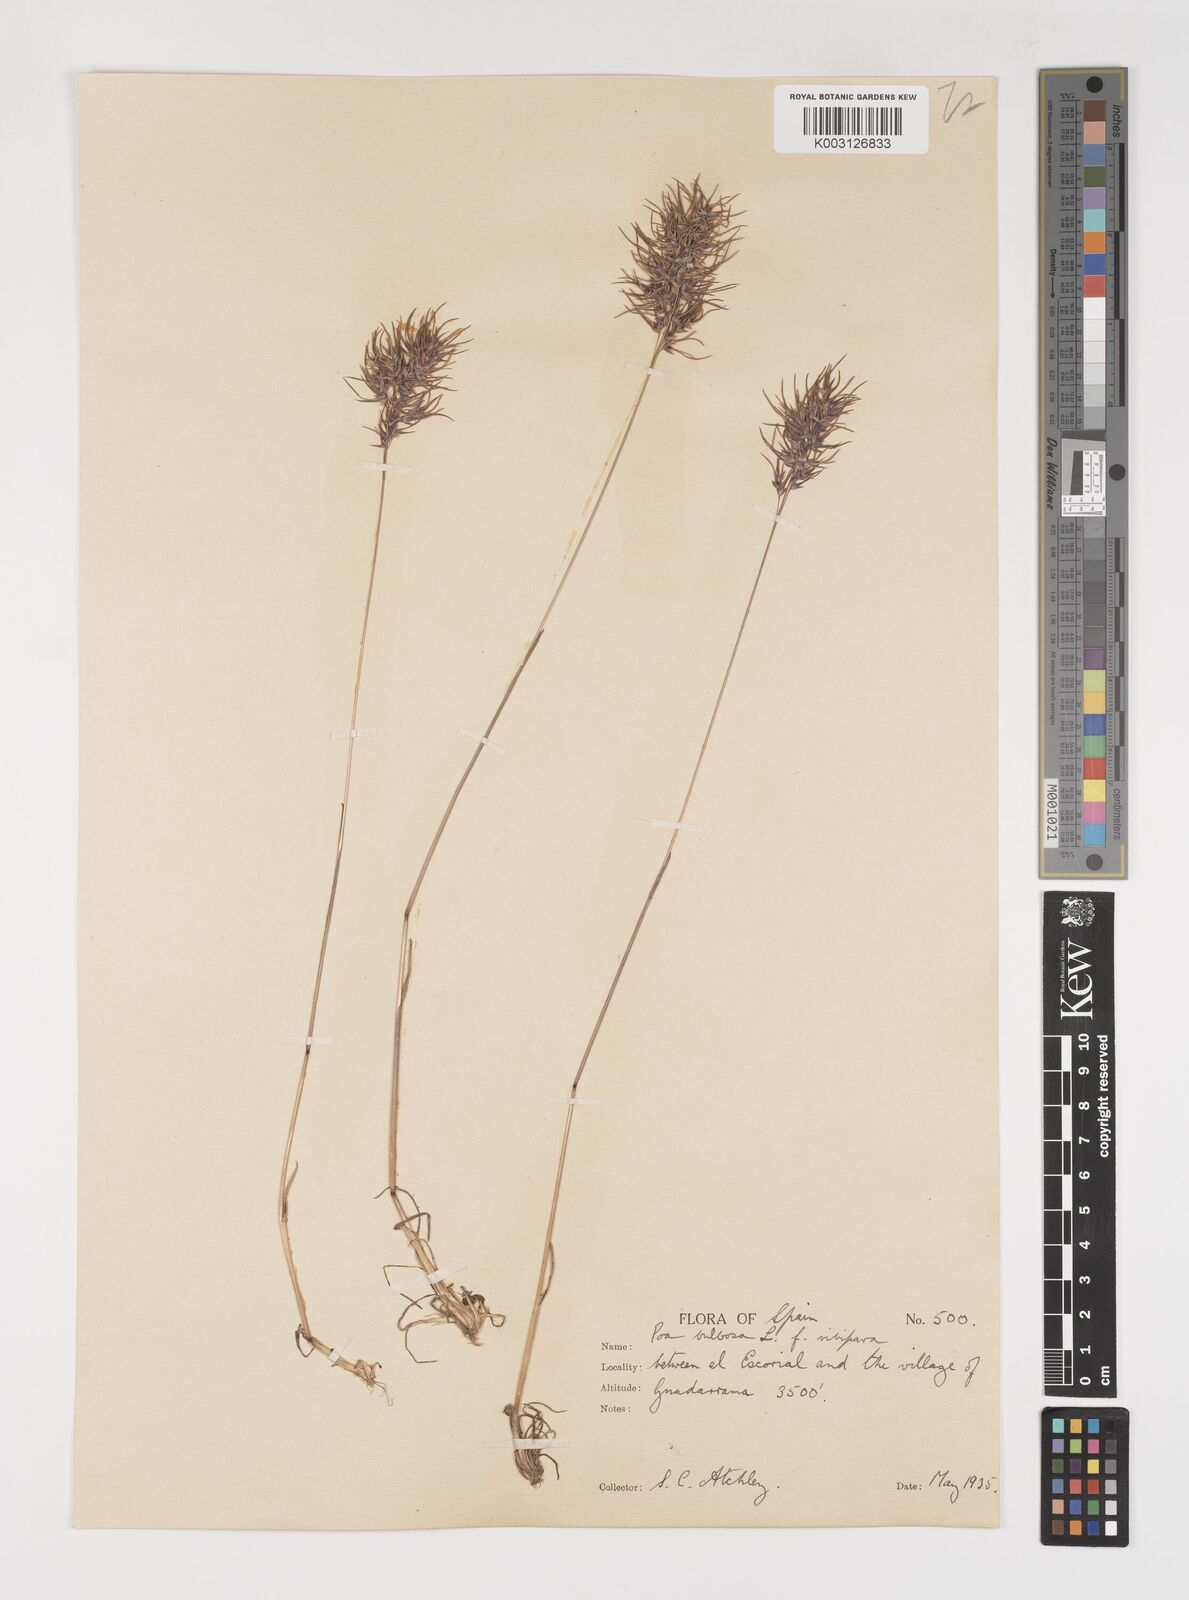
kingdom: Plantae
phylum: Tracheophyta
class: Liliopsida
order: Poales
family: Poaceae
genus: Poa
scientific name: Poa bulbosa
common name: Bulbous bluegrass
